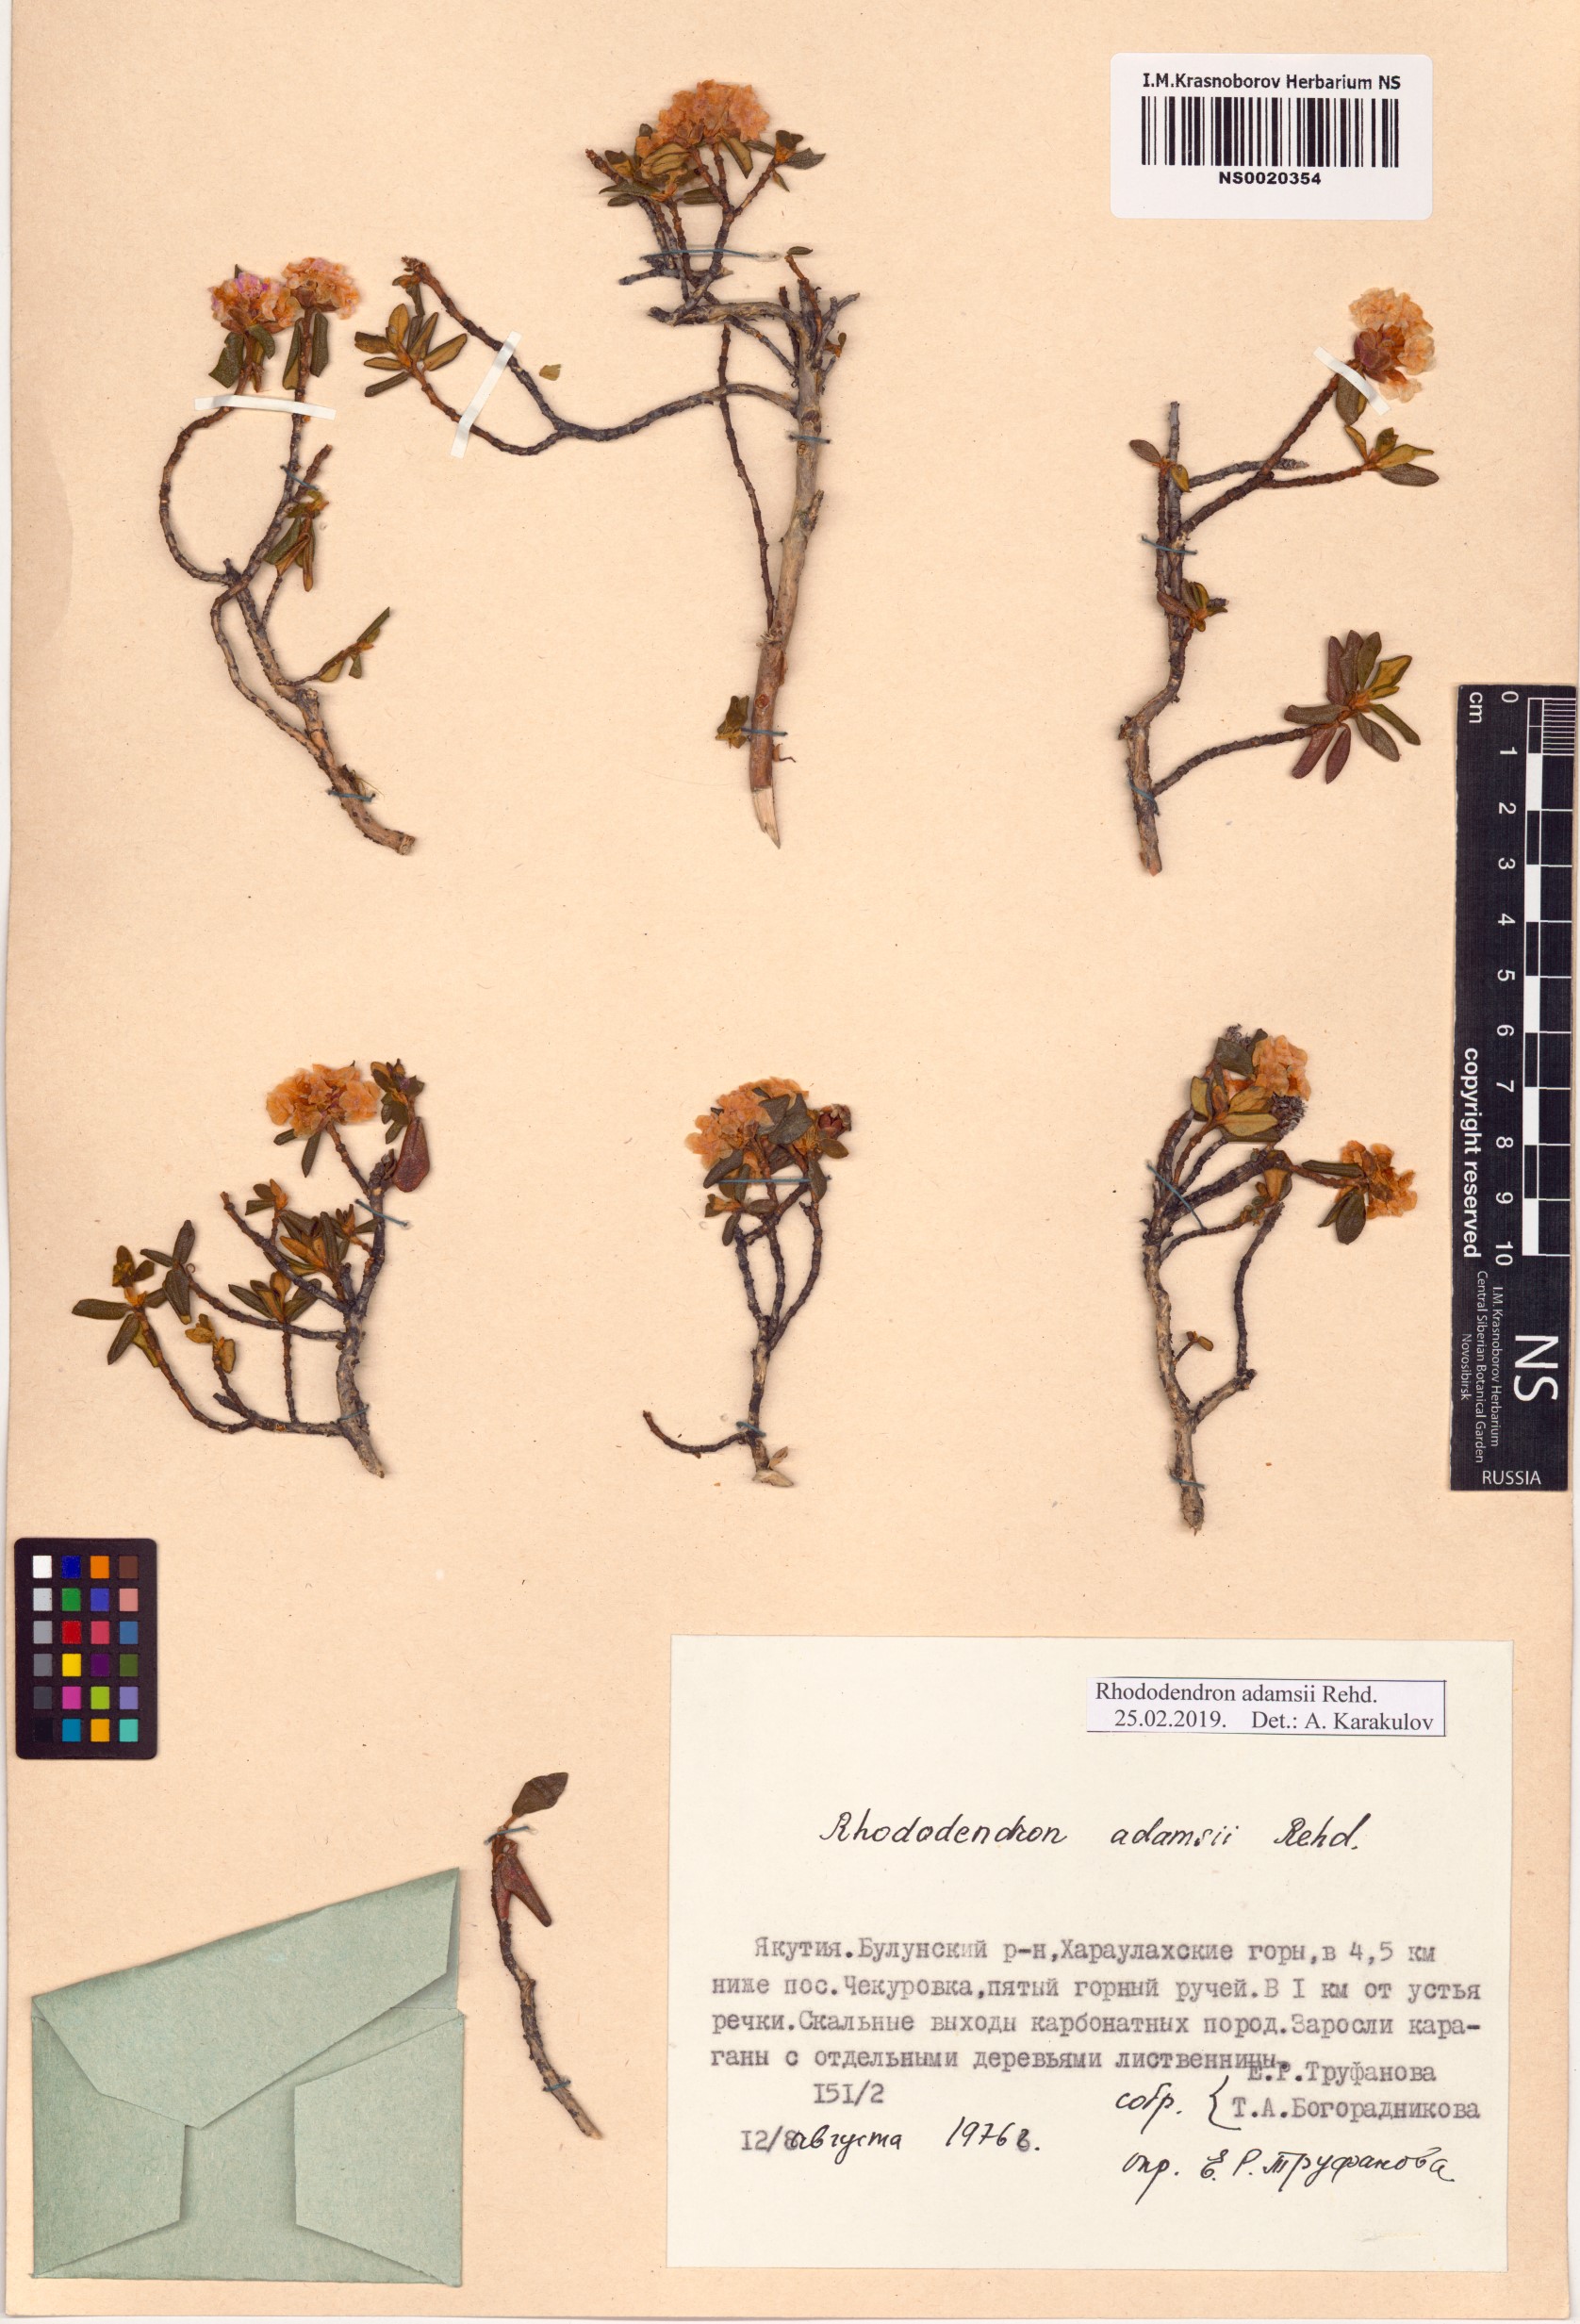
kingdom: Plantae
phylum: Tracheophyta
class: Magnoliopsida
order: Ericales
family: Ericaceae
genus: Rhododendron
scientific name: Rhododendron adamsii
